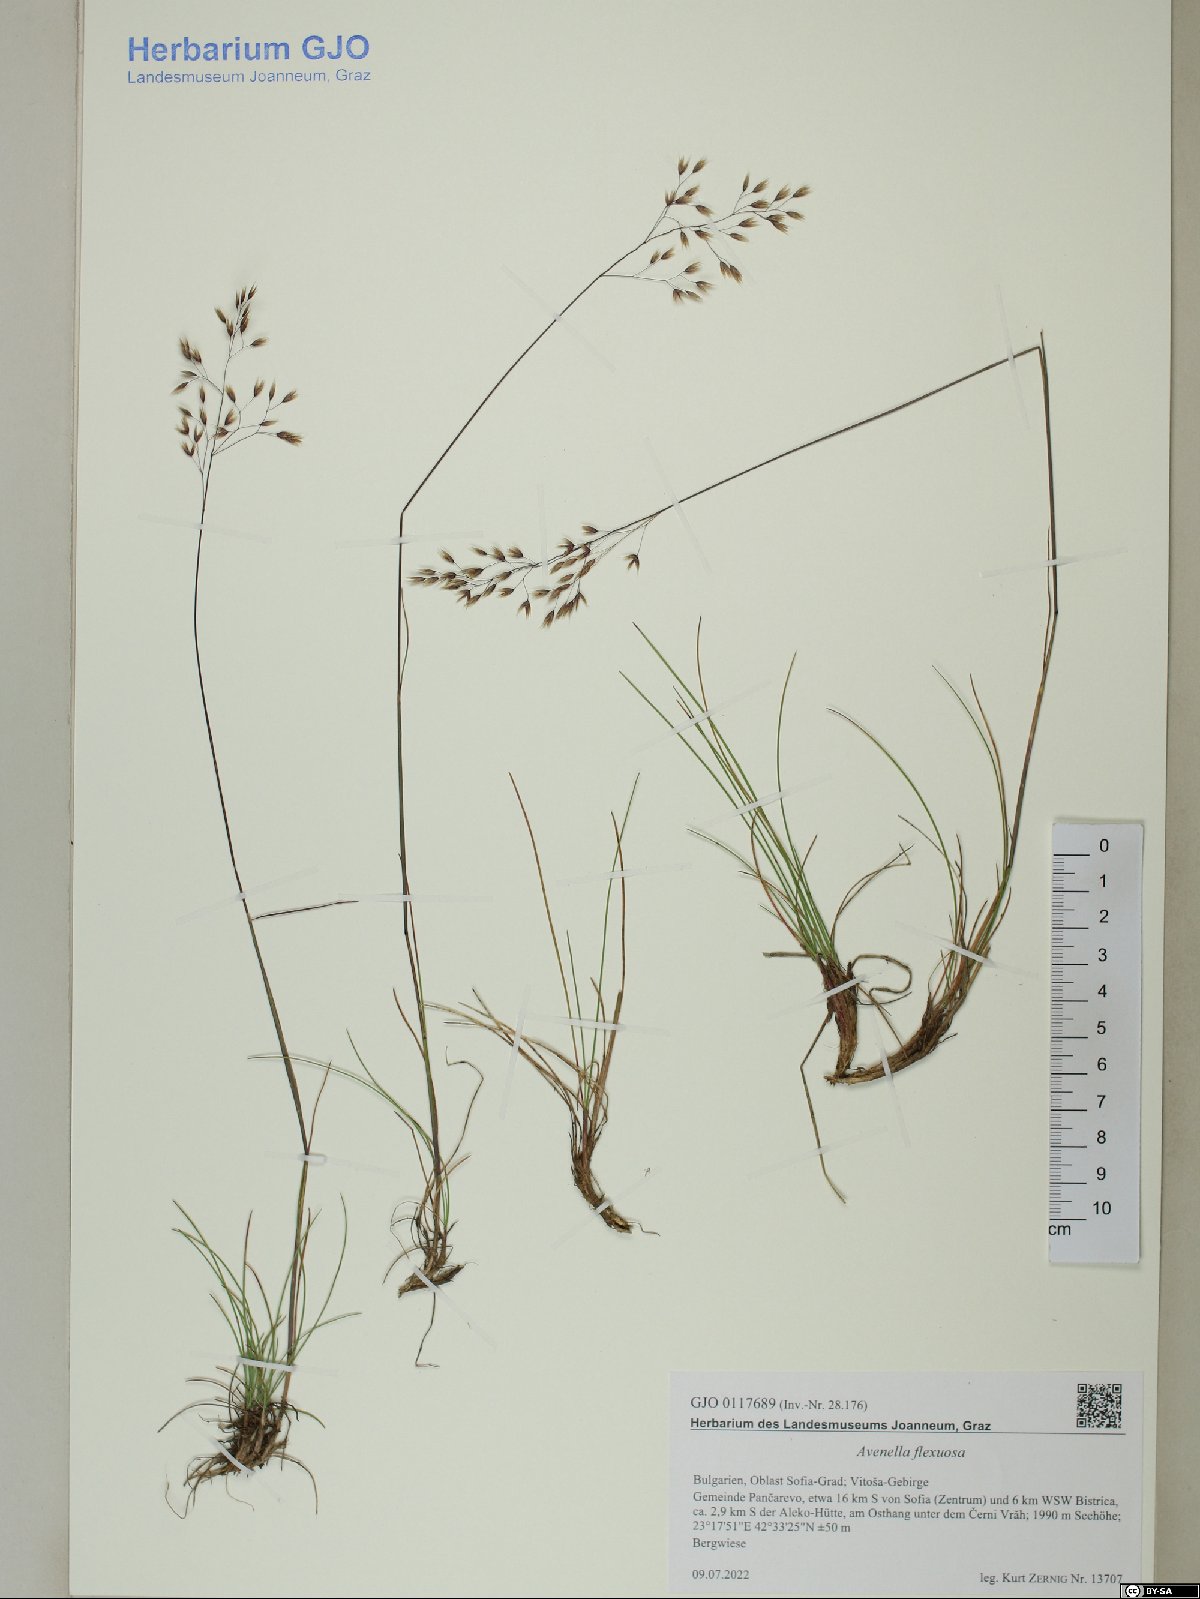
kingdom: Plantae
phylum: Tracheophyta
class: Liliopsida
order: Poales
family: Poaceae
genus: Avenella
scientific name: Avenella flexuosa
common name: Wavy hairgrass
